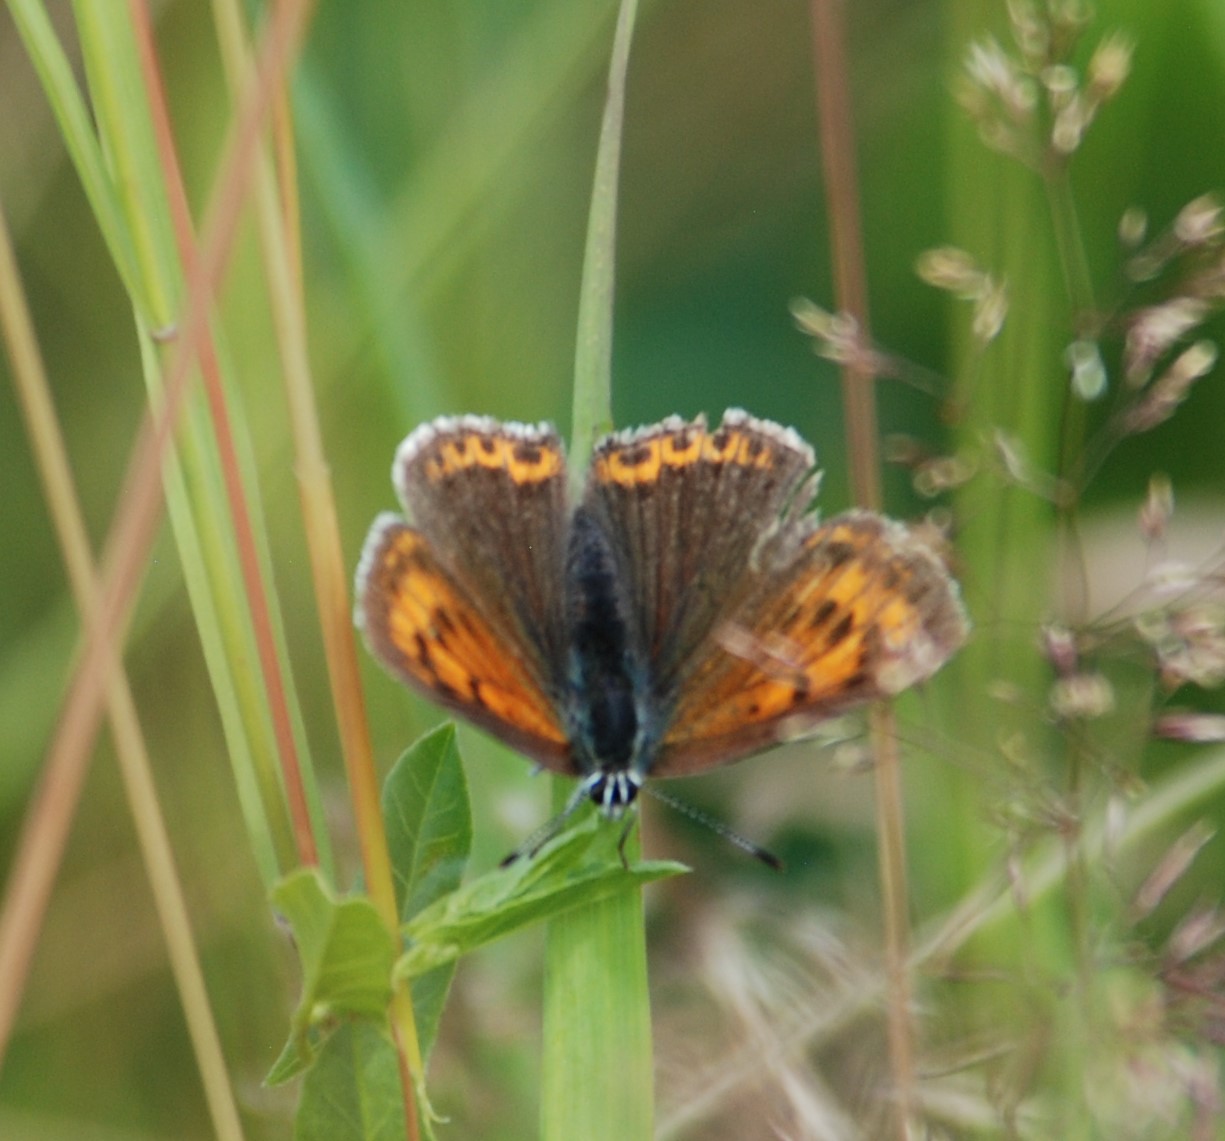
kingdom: Animalia
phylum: Arthropoda
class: Insecta
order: Lepidoptera
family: Lycaenidae
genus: Palaeochrysophanus
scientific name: Palaeochrysophanus hippothoe
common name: Violetrandet ildfugl
